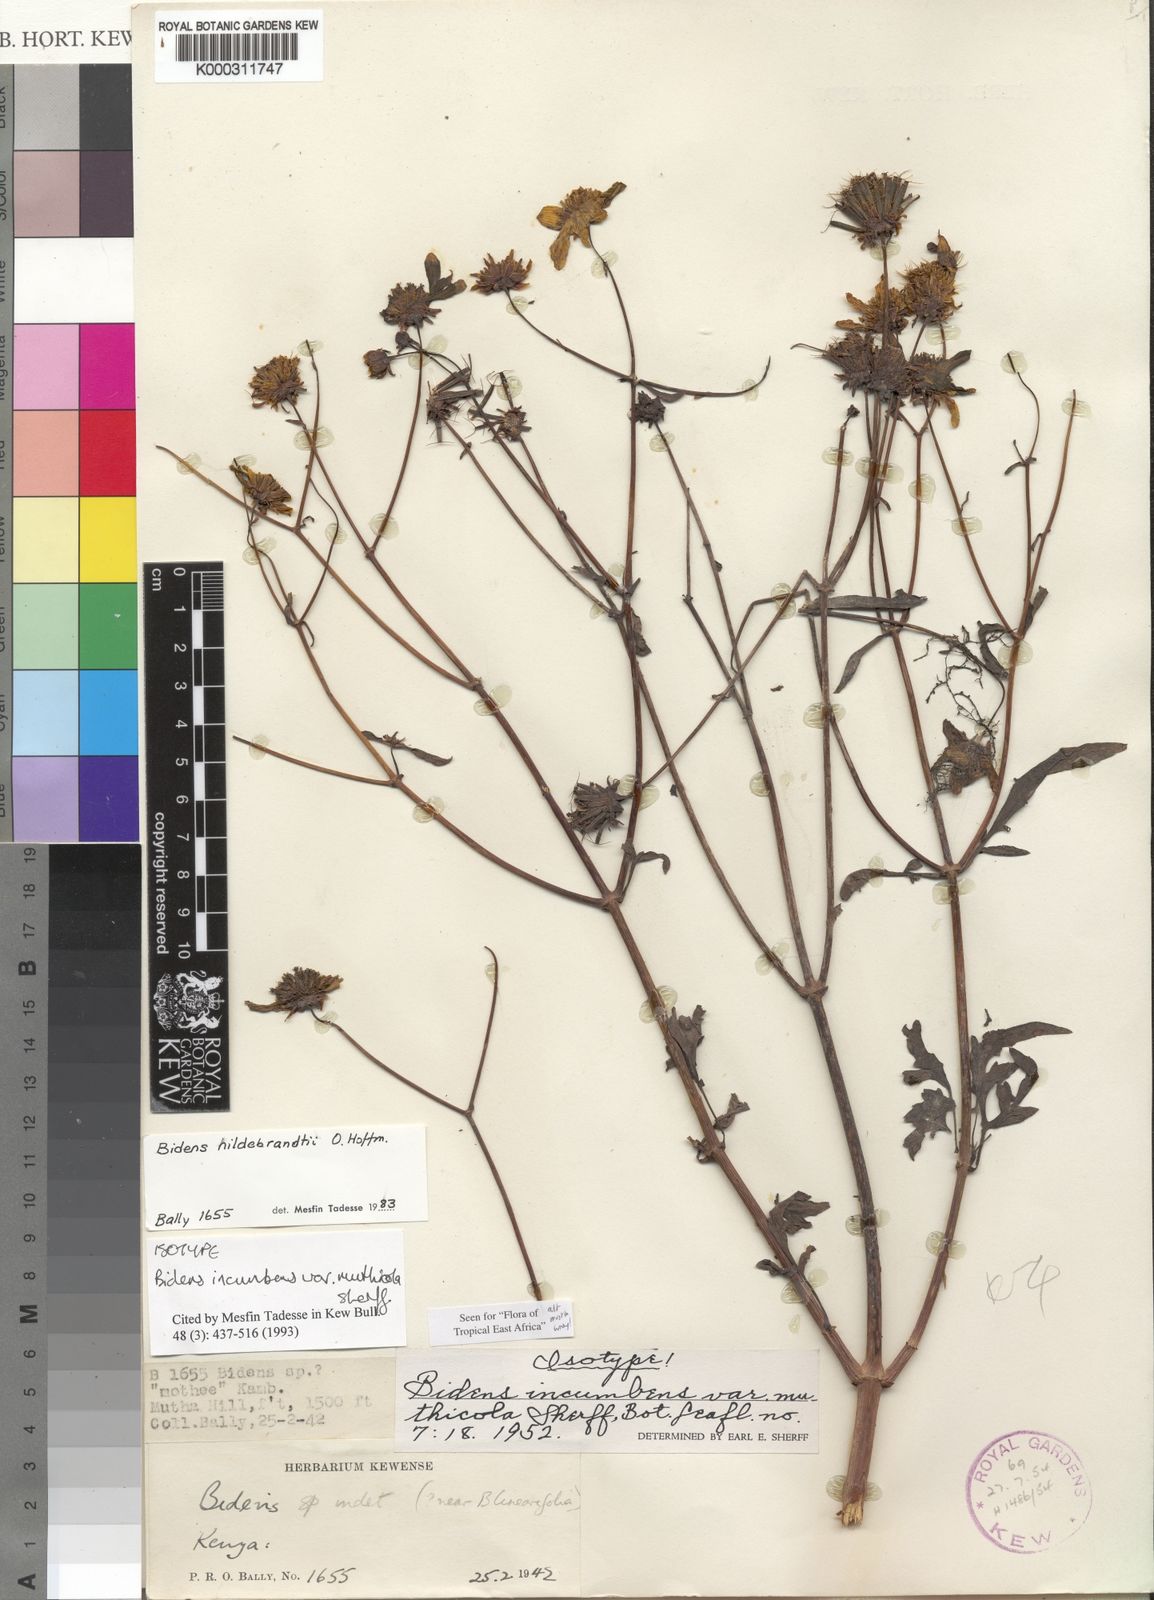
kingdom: Plantae
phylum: Tracheophyta
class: Magnoliopsida
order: Asterales
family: Asteraceae
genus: Bidens
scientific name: Bidens hildebrandtii
